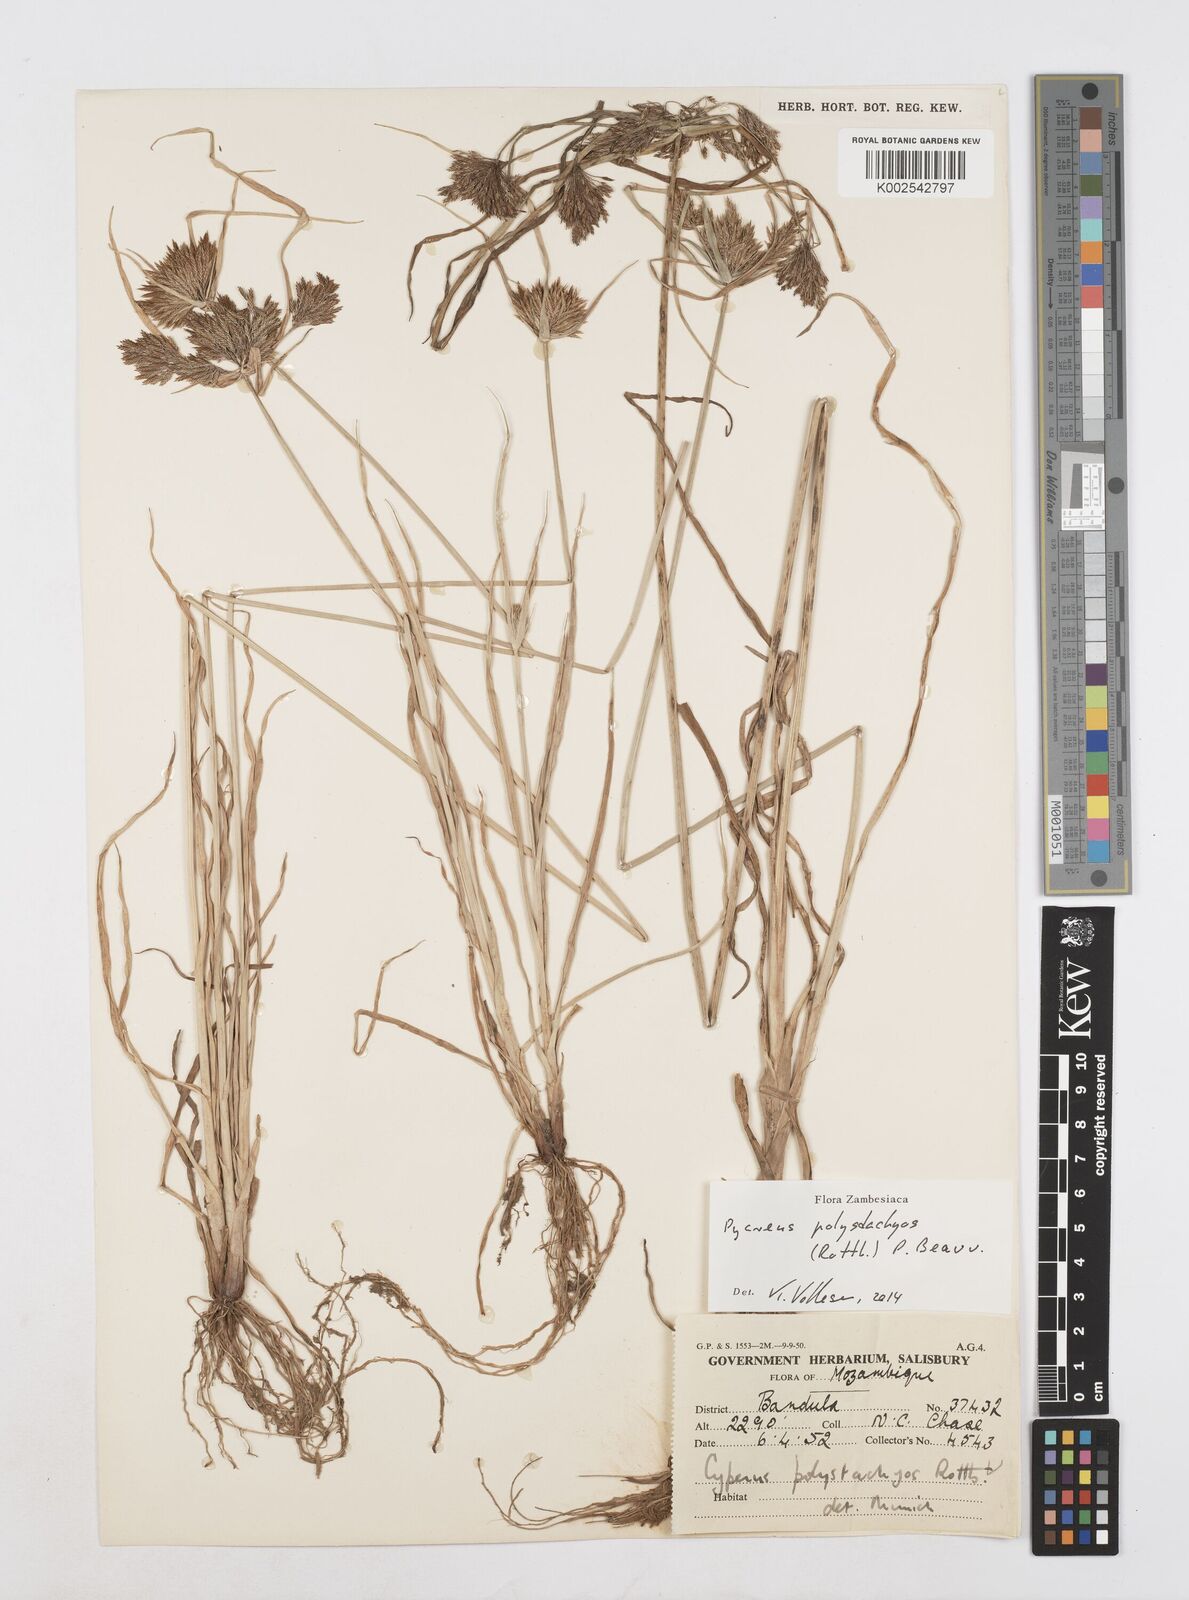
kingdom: Plantae
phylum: Tracheophyta
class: Liliopsida
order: Poales
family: Cyperaceae
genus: Cyperus
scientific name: Cyperus polystachyos
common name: Bunchy flat sedge
